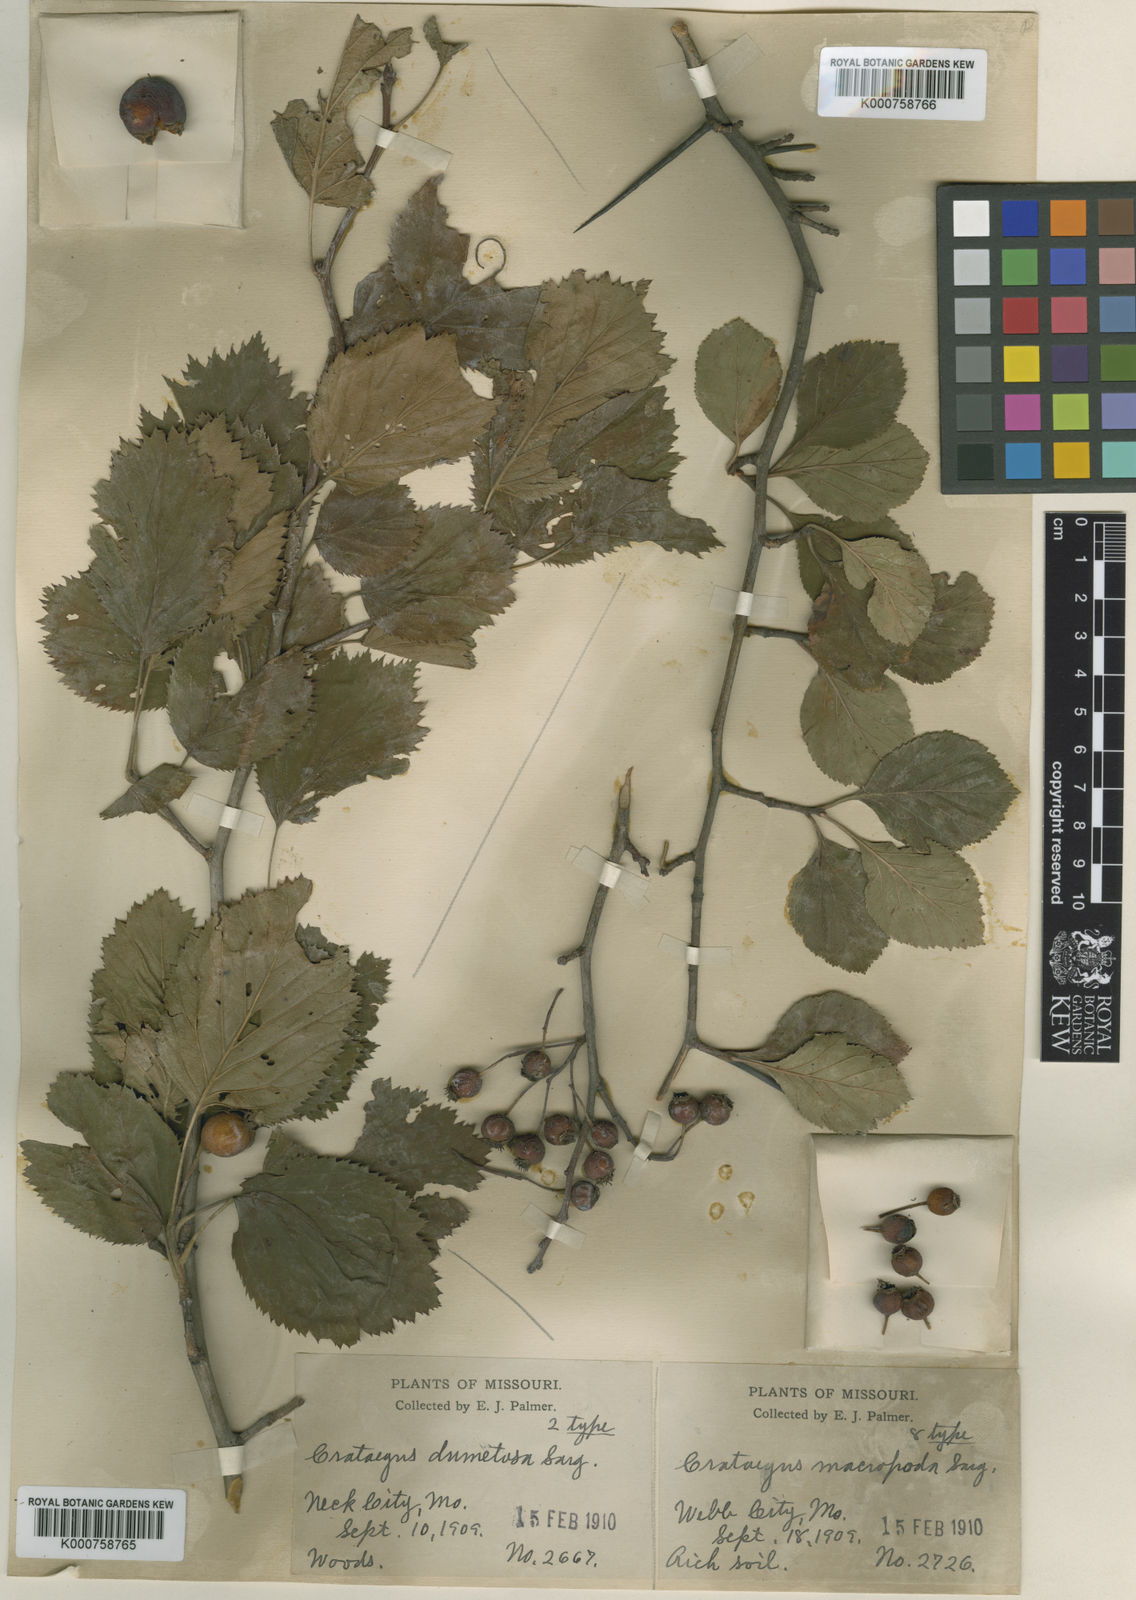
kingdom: Plantae
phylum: Tracheophyta
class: Magnoliopsida
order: Rosales
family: Rosaceae
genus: Crataegus
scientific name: Crataegus macropoda
